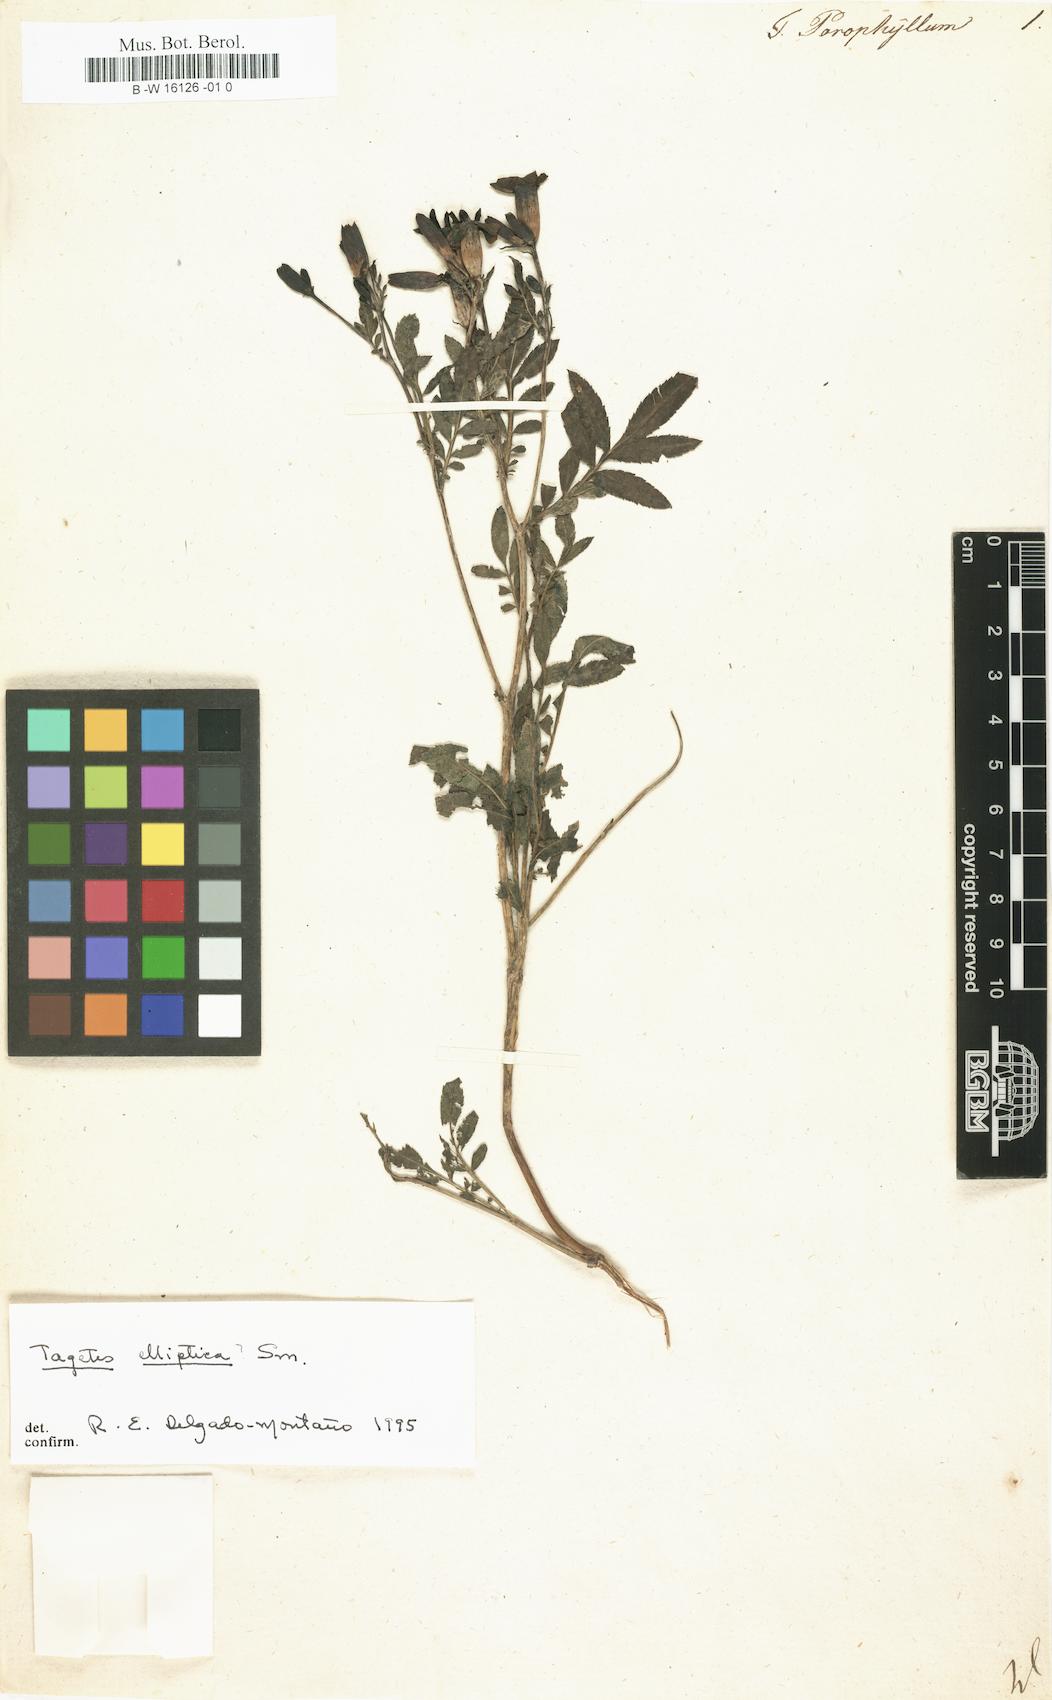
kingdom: Plantae
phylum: Tracheophyta
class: Magnoliopsida
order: Asterales
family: Asteraceae
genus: Tagetes
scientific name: Tagetes minuta
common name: Muster john henry
